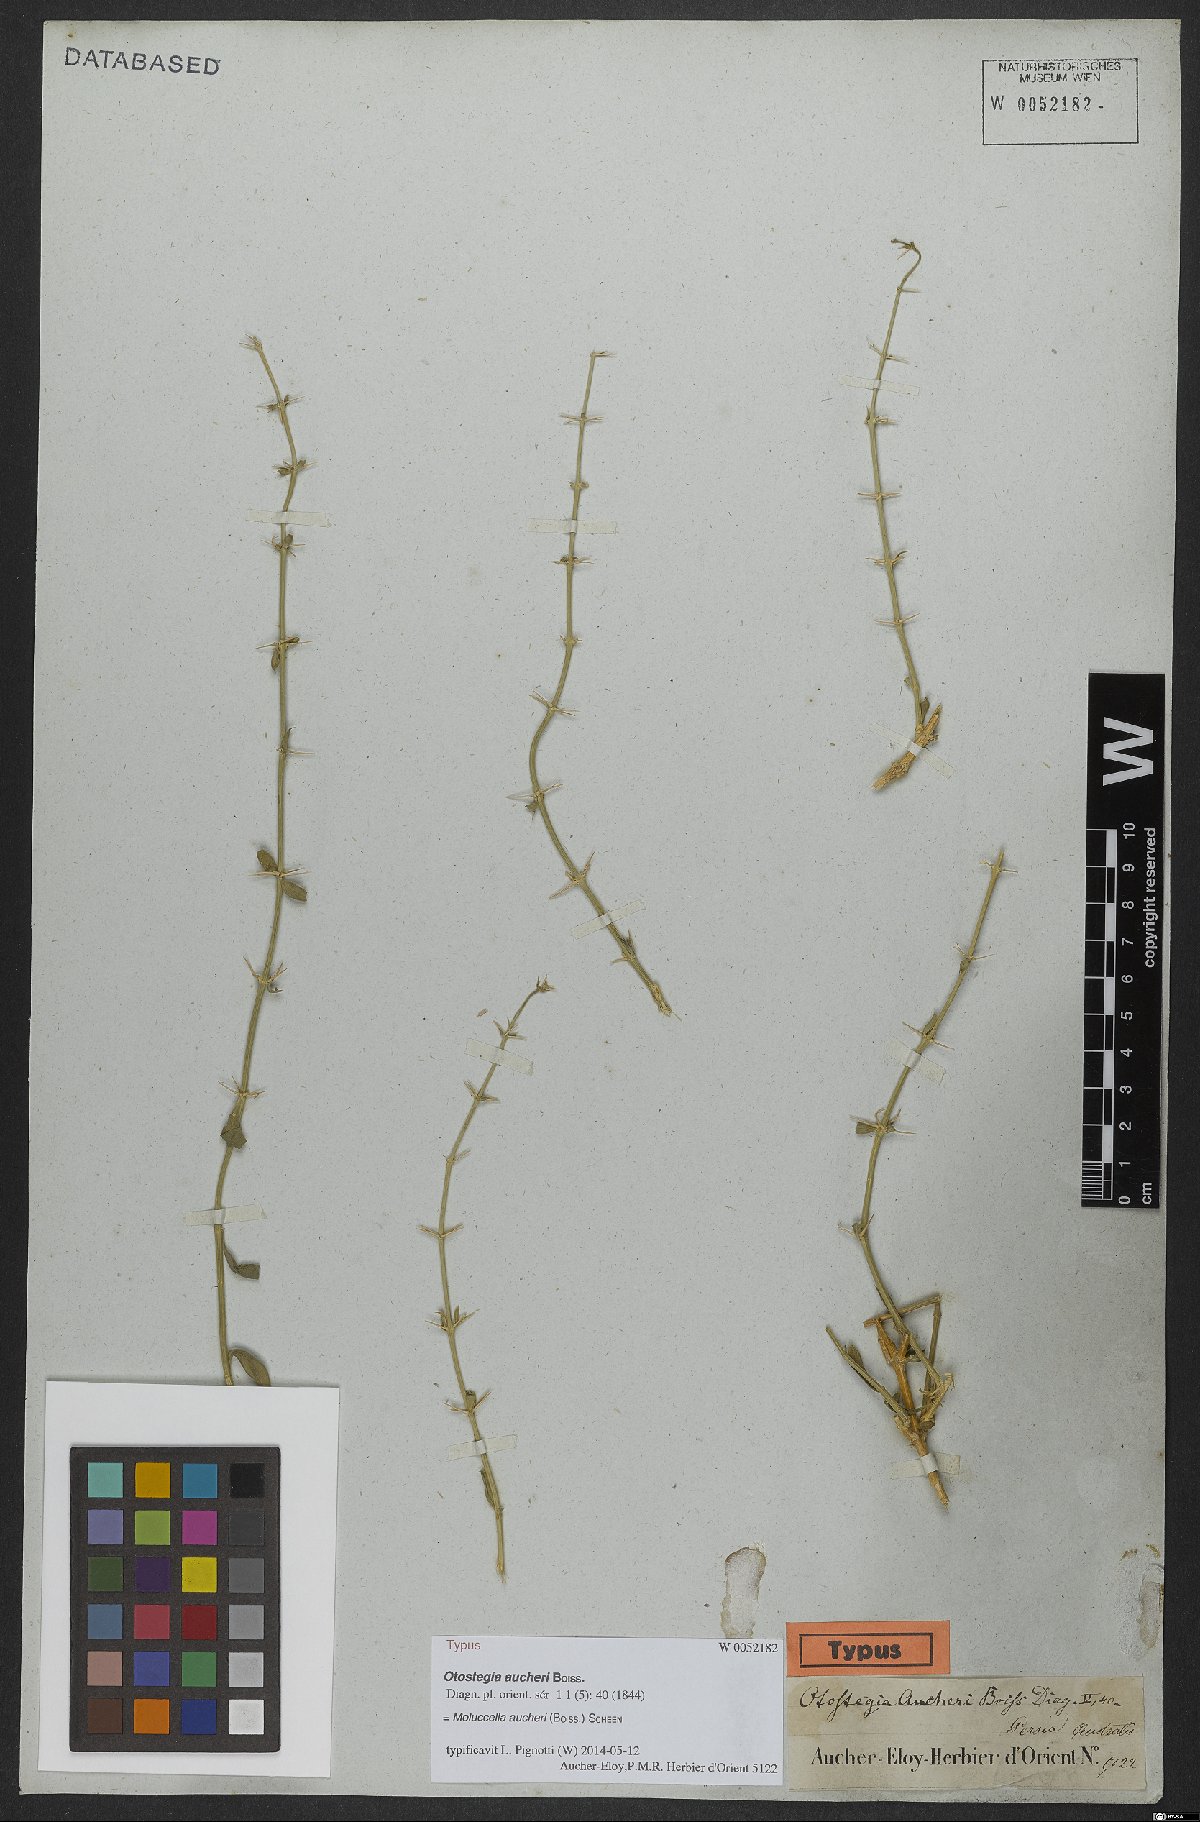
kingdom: Plantae
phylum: Tracheophyta
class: Magnoliopsida
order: Lamiales
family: Lamiaceae
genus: Moluccella
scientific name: Moluccella aucheri
